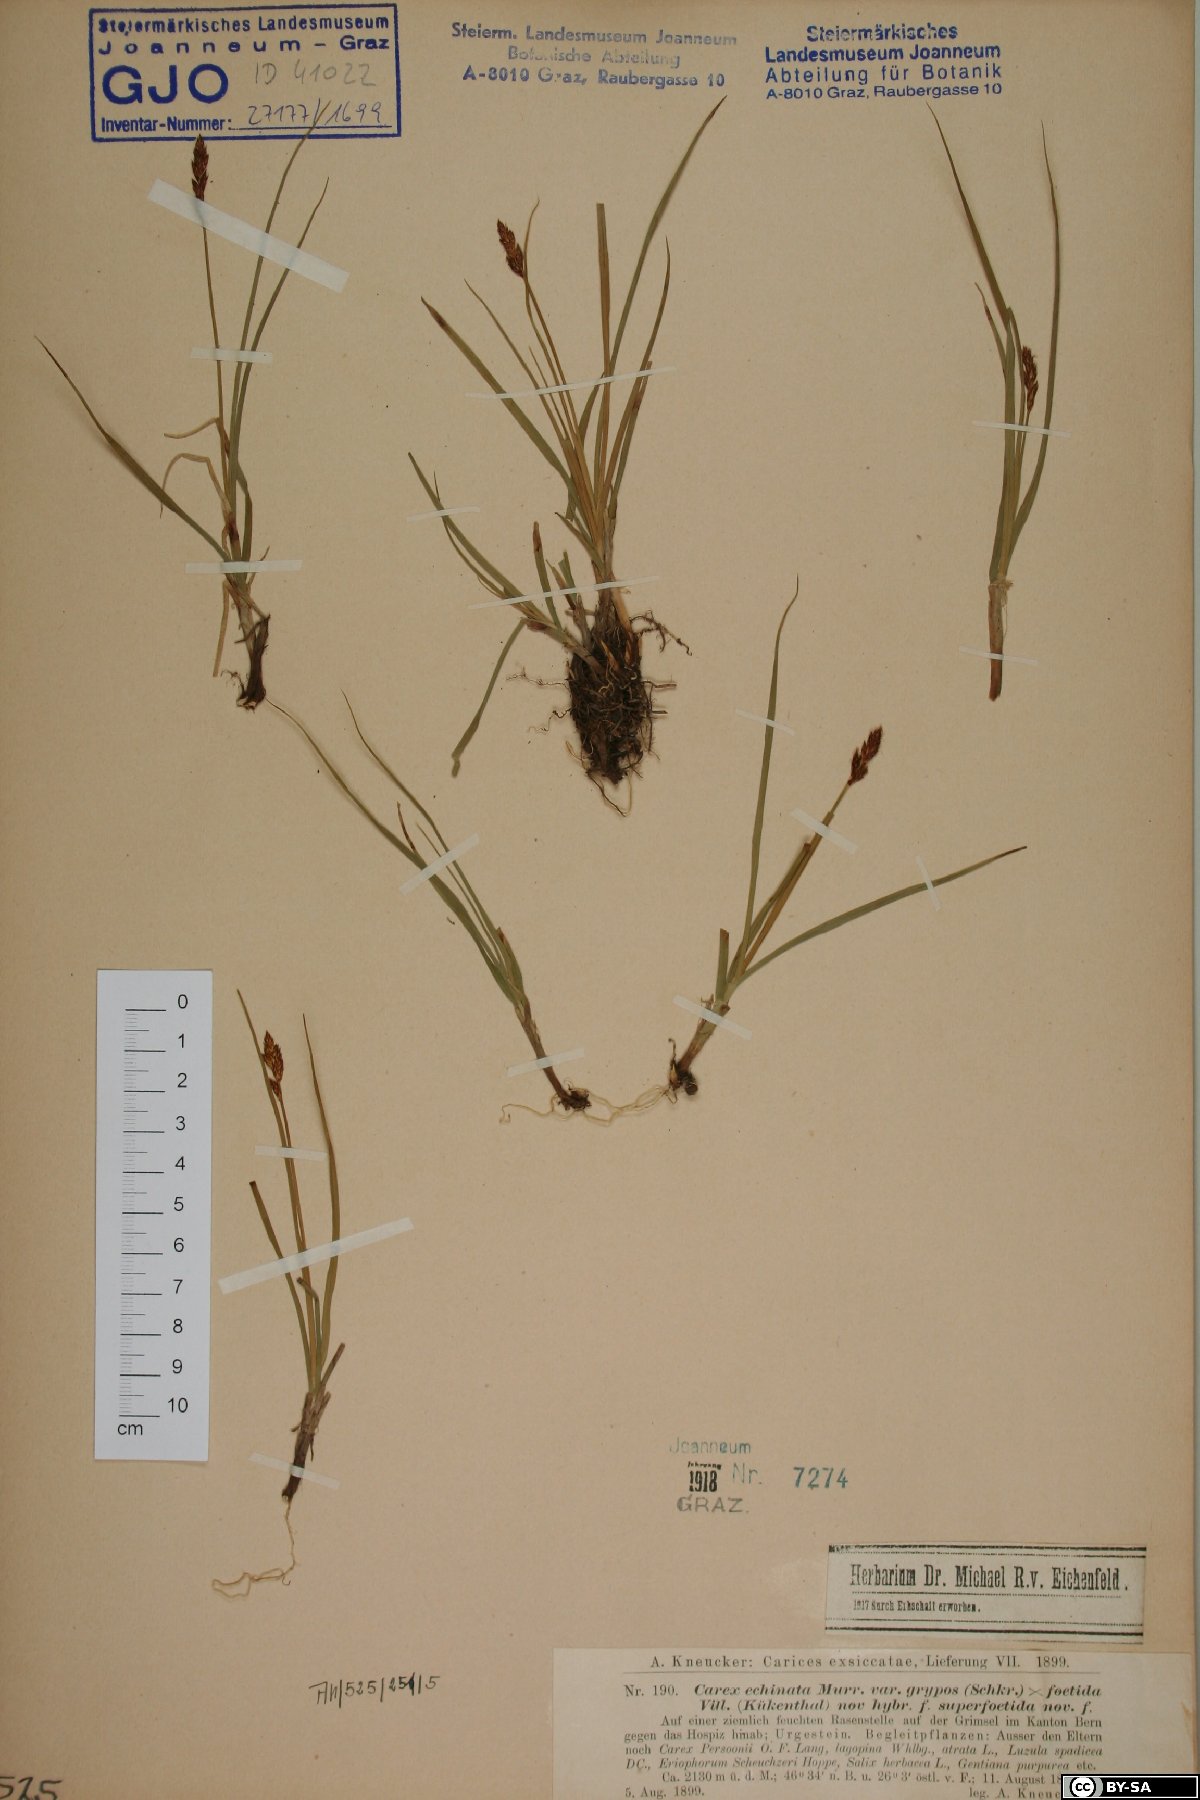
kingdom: Plantae
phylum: Tracheophyta
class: Liliopsida
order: Poales
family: Cyperaceae
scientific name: Cyperaceae
